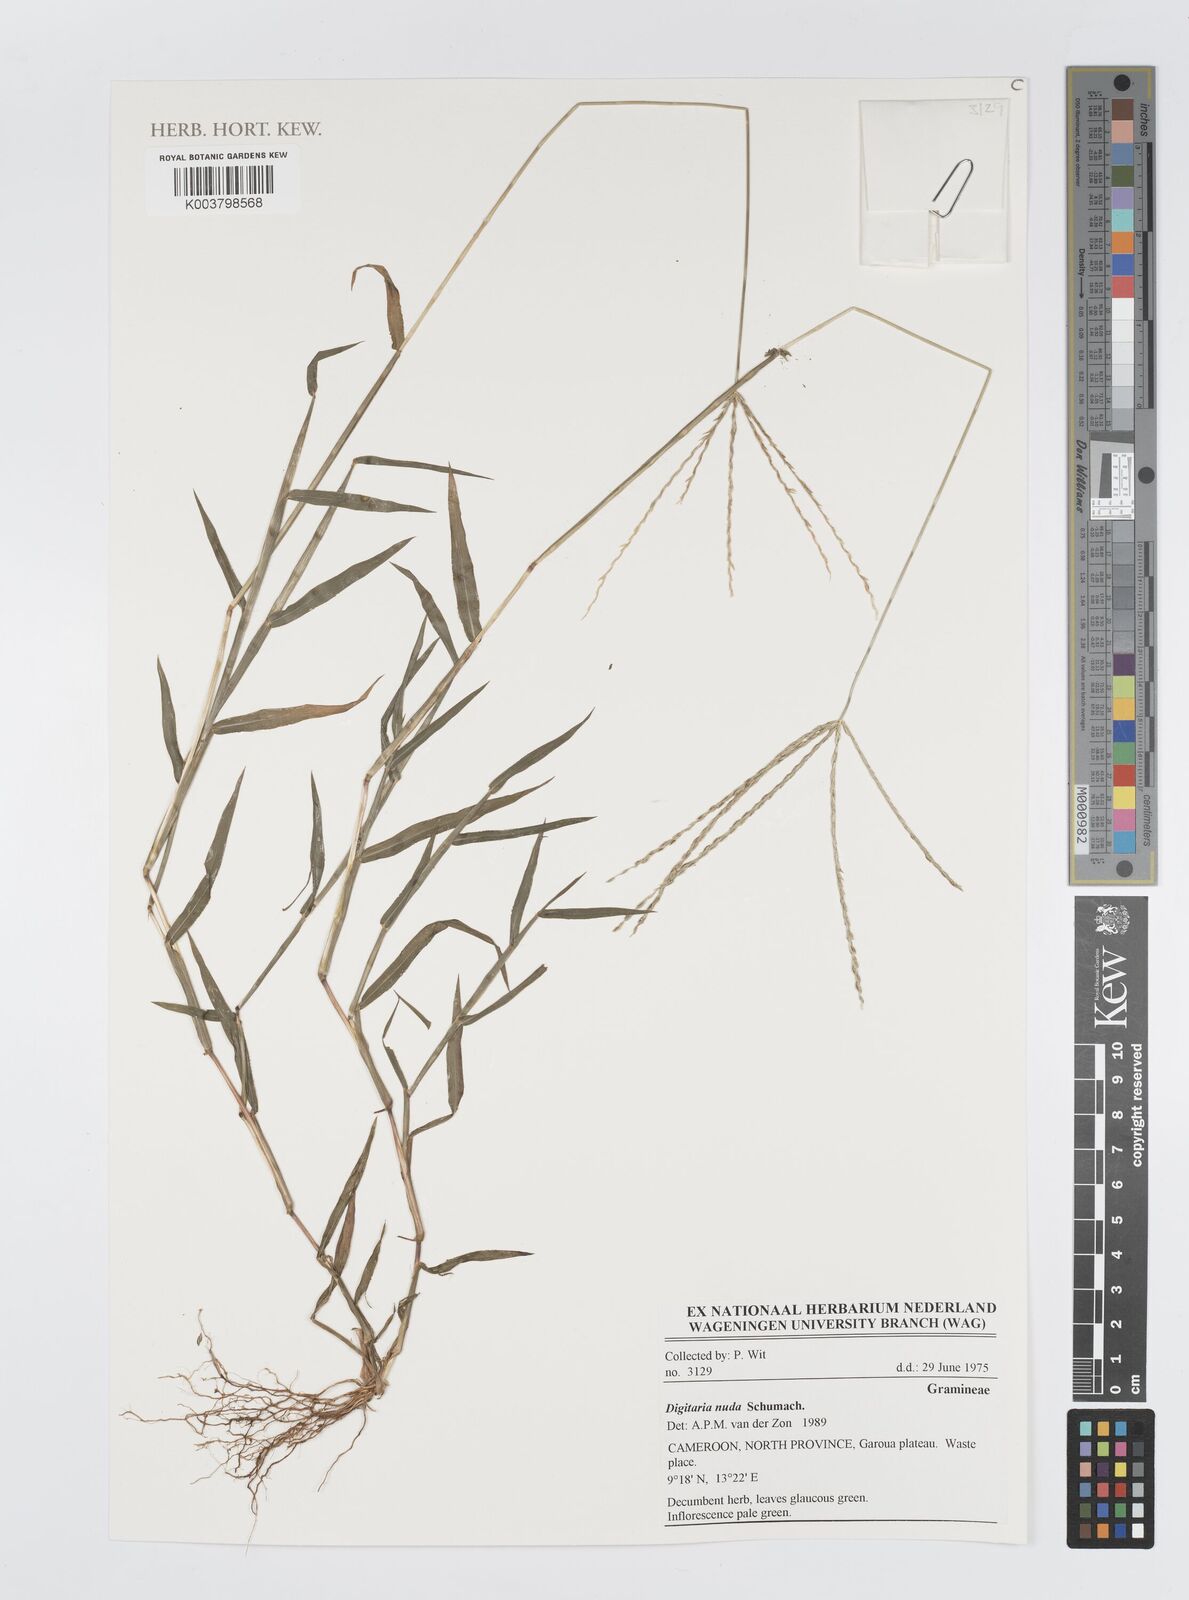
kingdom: Plantae
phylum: Tracheophyta
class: Liliopsida
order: Poales
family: Poaceae
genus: Digitaria
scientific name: Digitaria nuda
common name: Naked crabgrass
